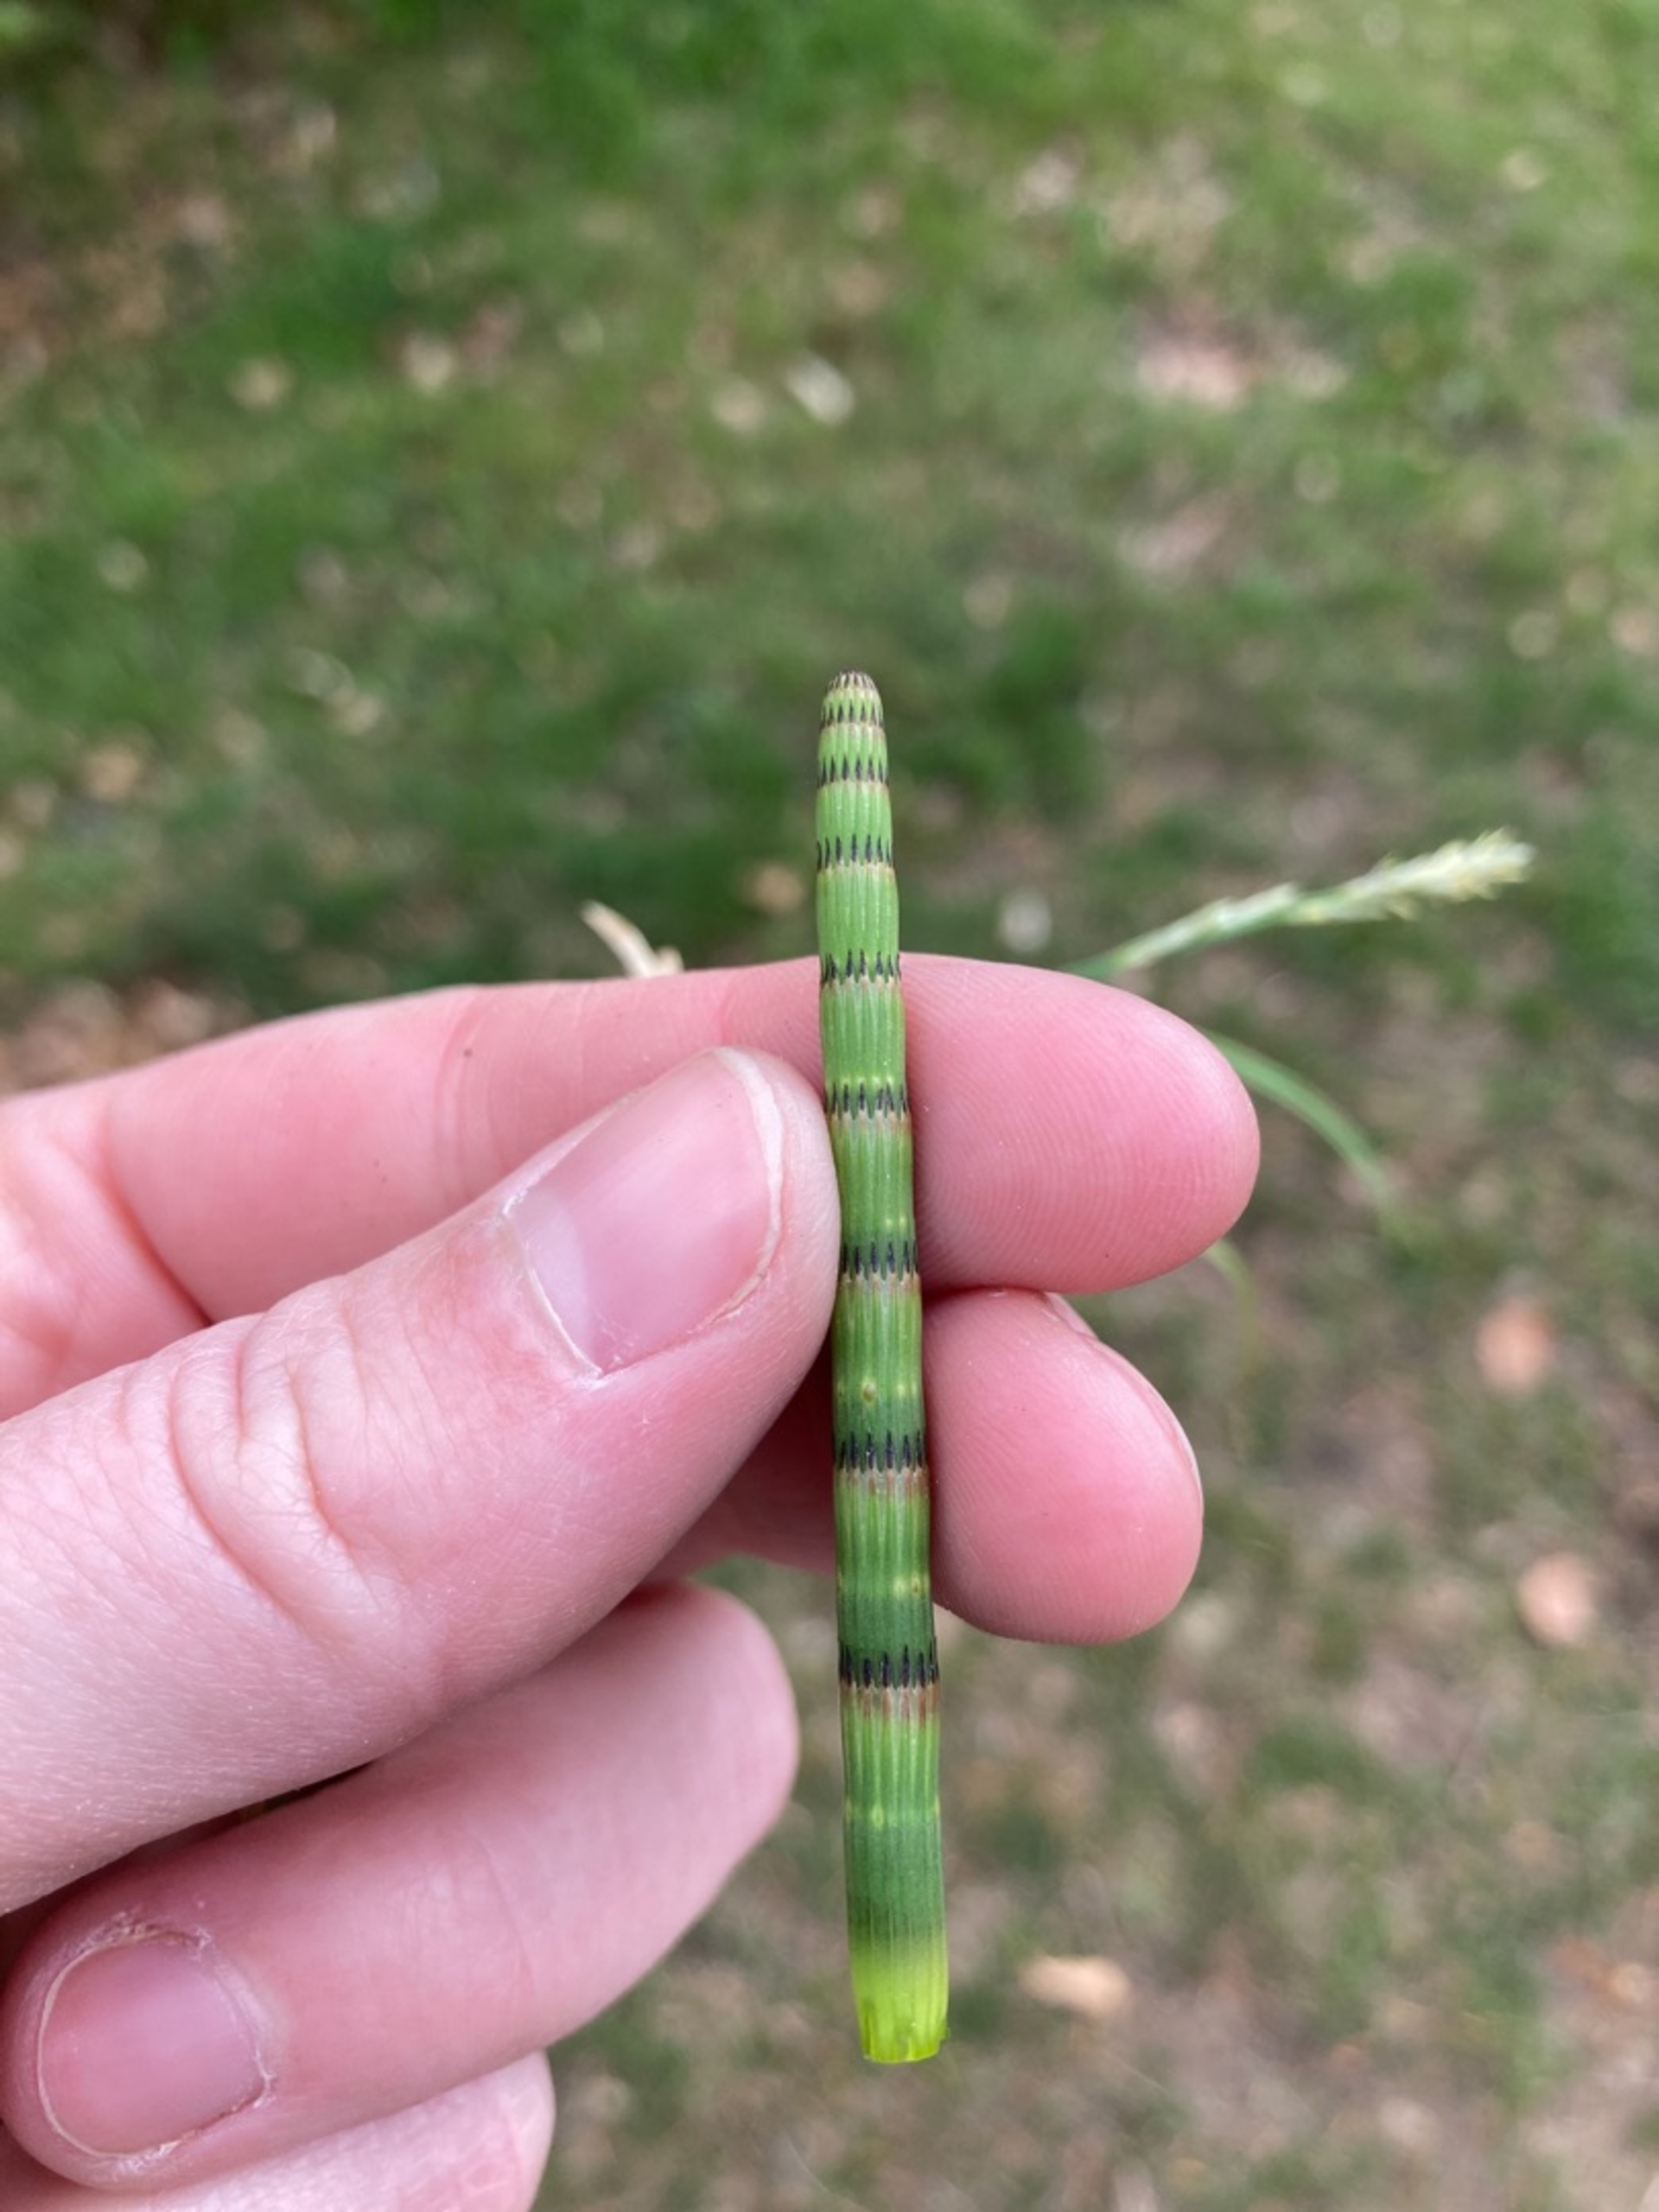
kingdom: Plantae
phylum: Tracheophyta
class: Polypodiopsida
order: Equisetales
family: Equisetaceae
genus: Equisetum
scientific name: Equisetum fluviatile
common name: Dynd-padderok
